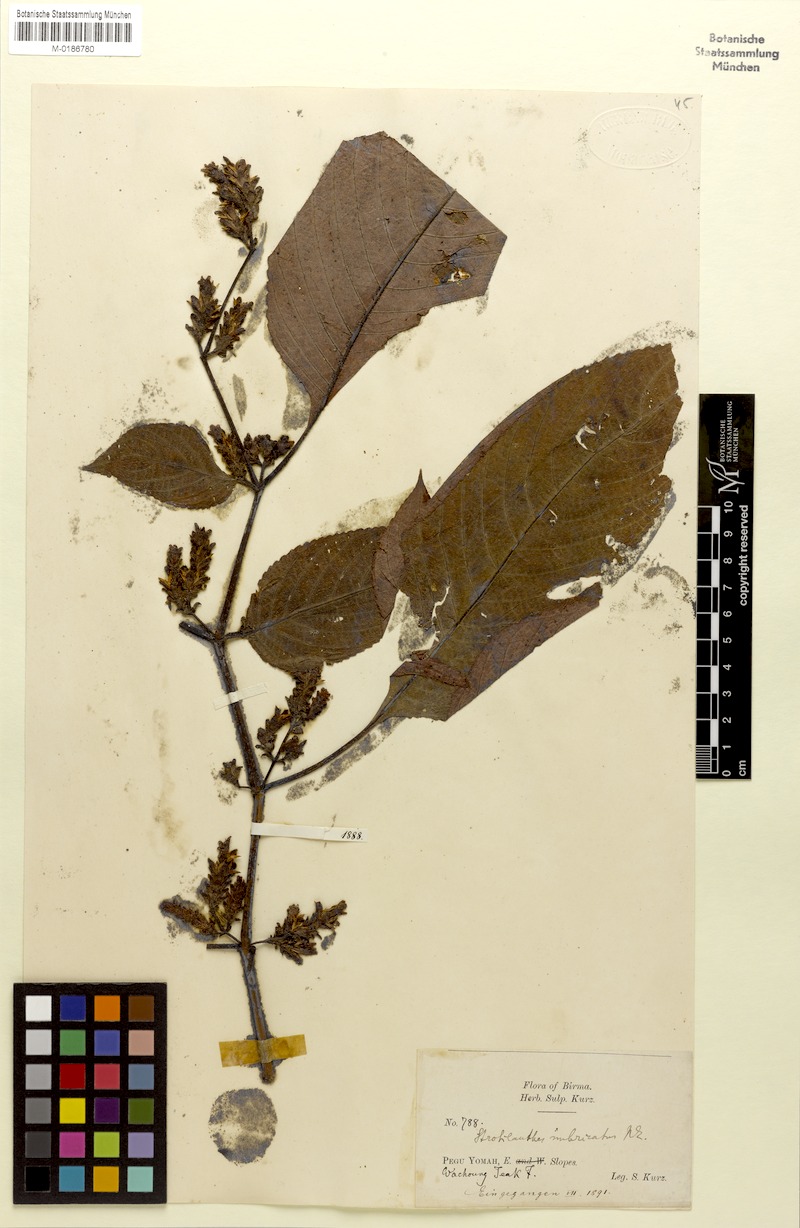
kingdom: Plantae
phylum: Tracheophyta
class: Magnoliopsida
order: Lamiales
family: Acanthaceae
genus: Strobilanthes
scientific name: Strobilanthes imbricata
